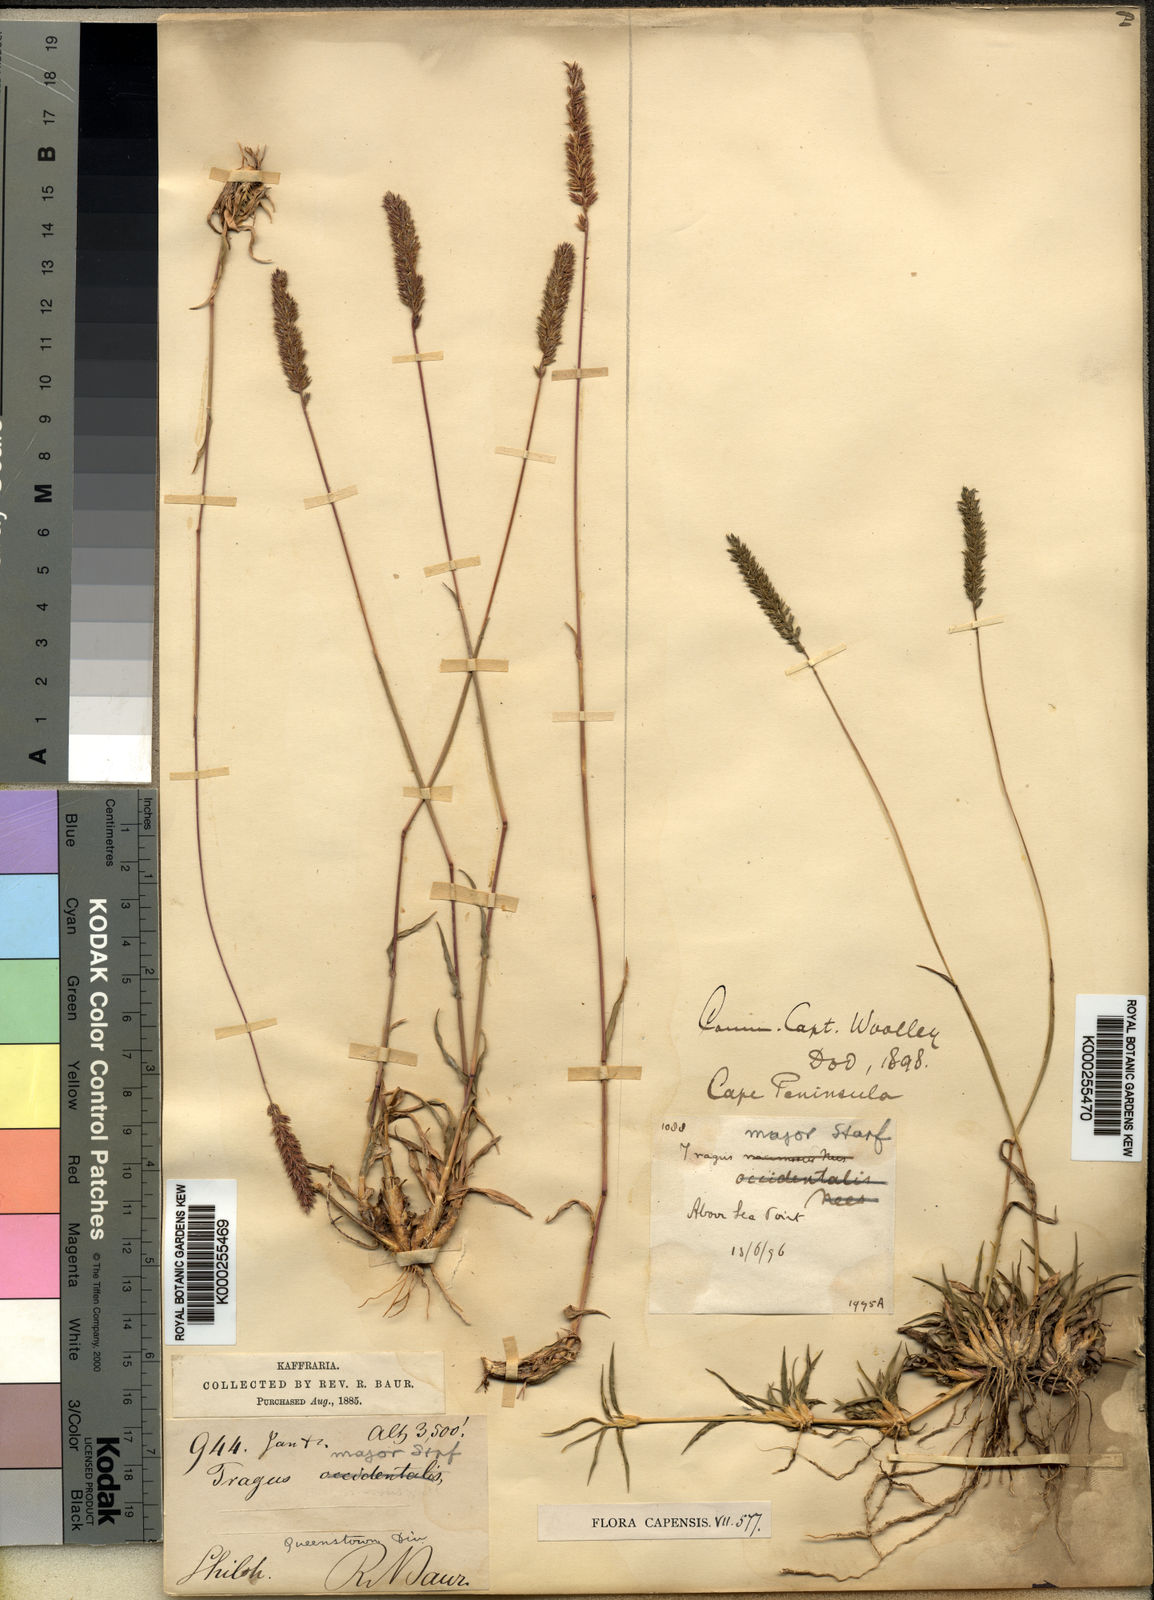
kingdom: Plantae
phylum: Tracheophyta
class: Liliopsida
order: Poales
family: Poaceae
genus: Tragus
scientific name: Tragus koelerioides
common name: Creeping carrot-seed grass
